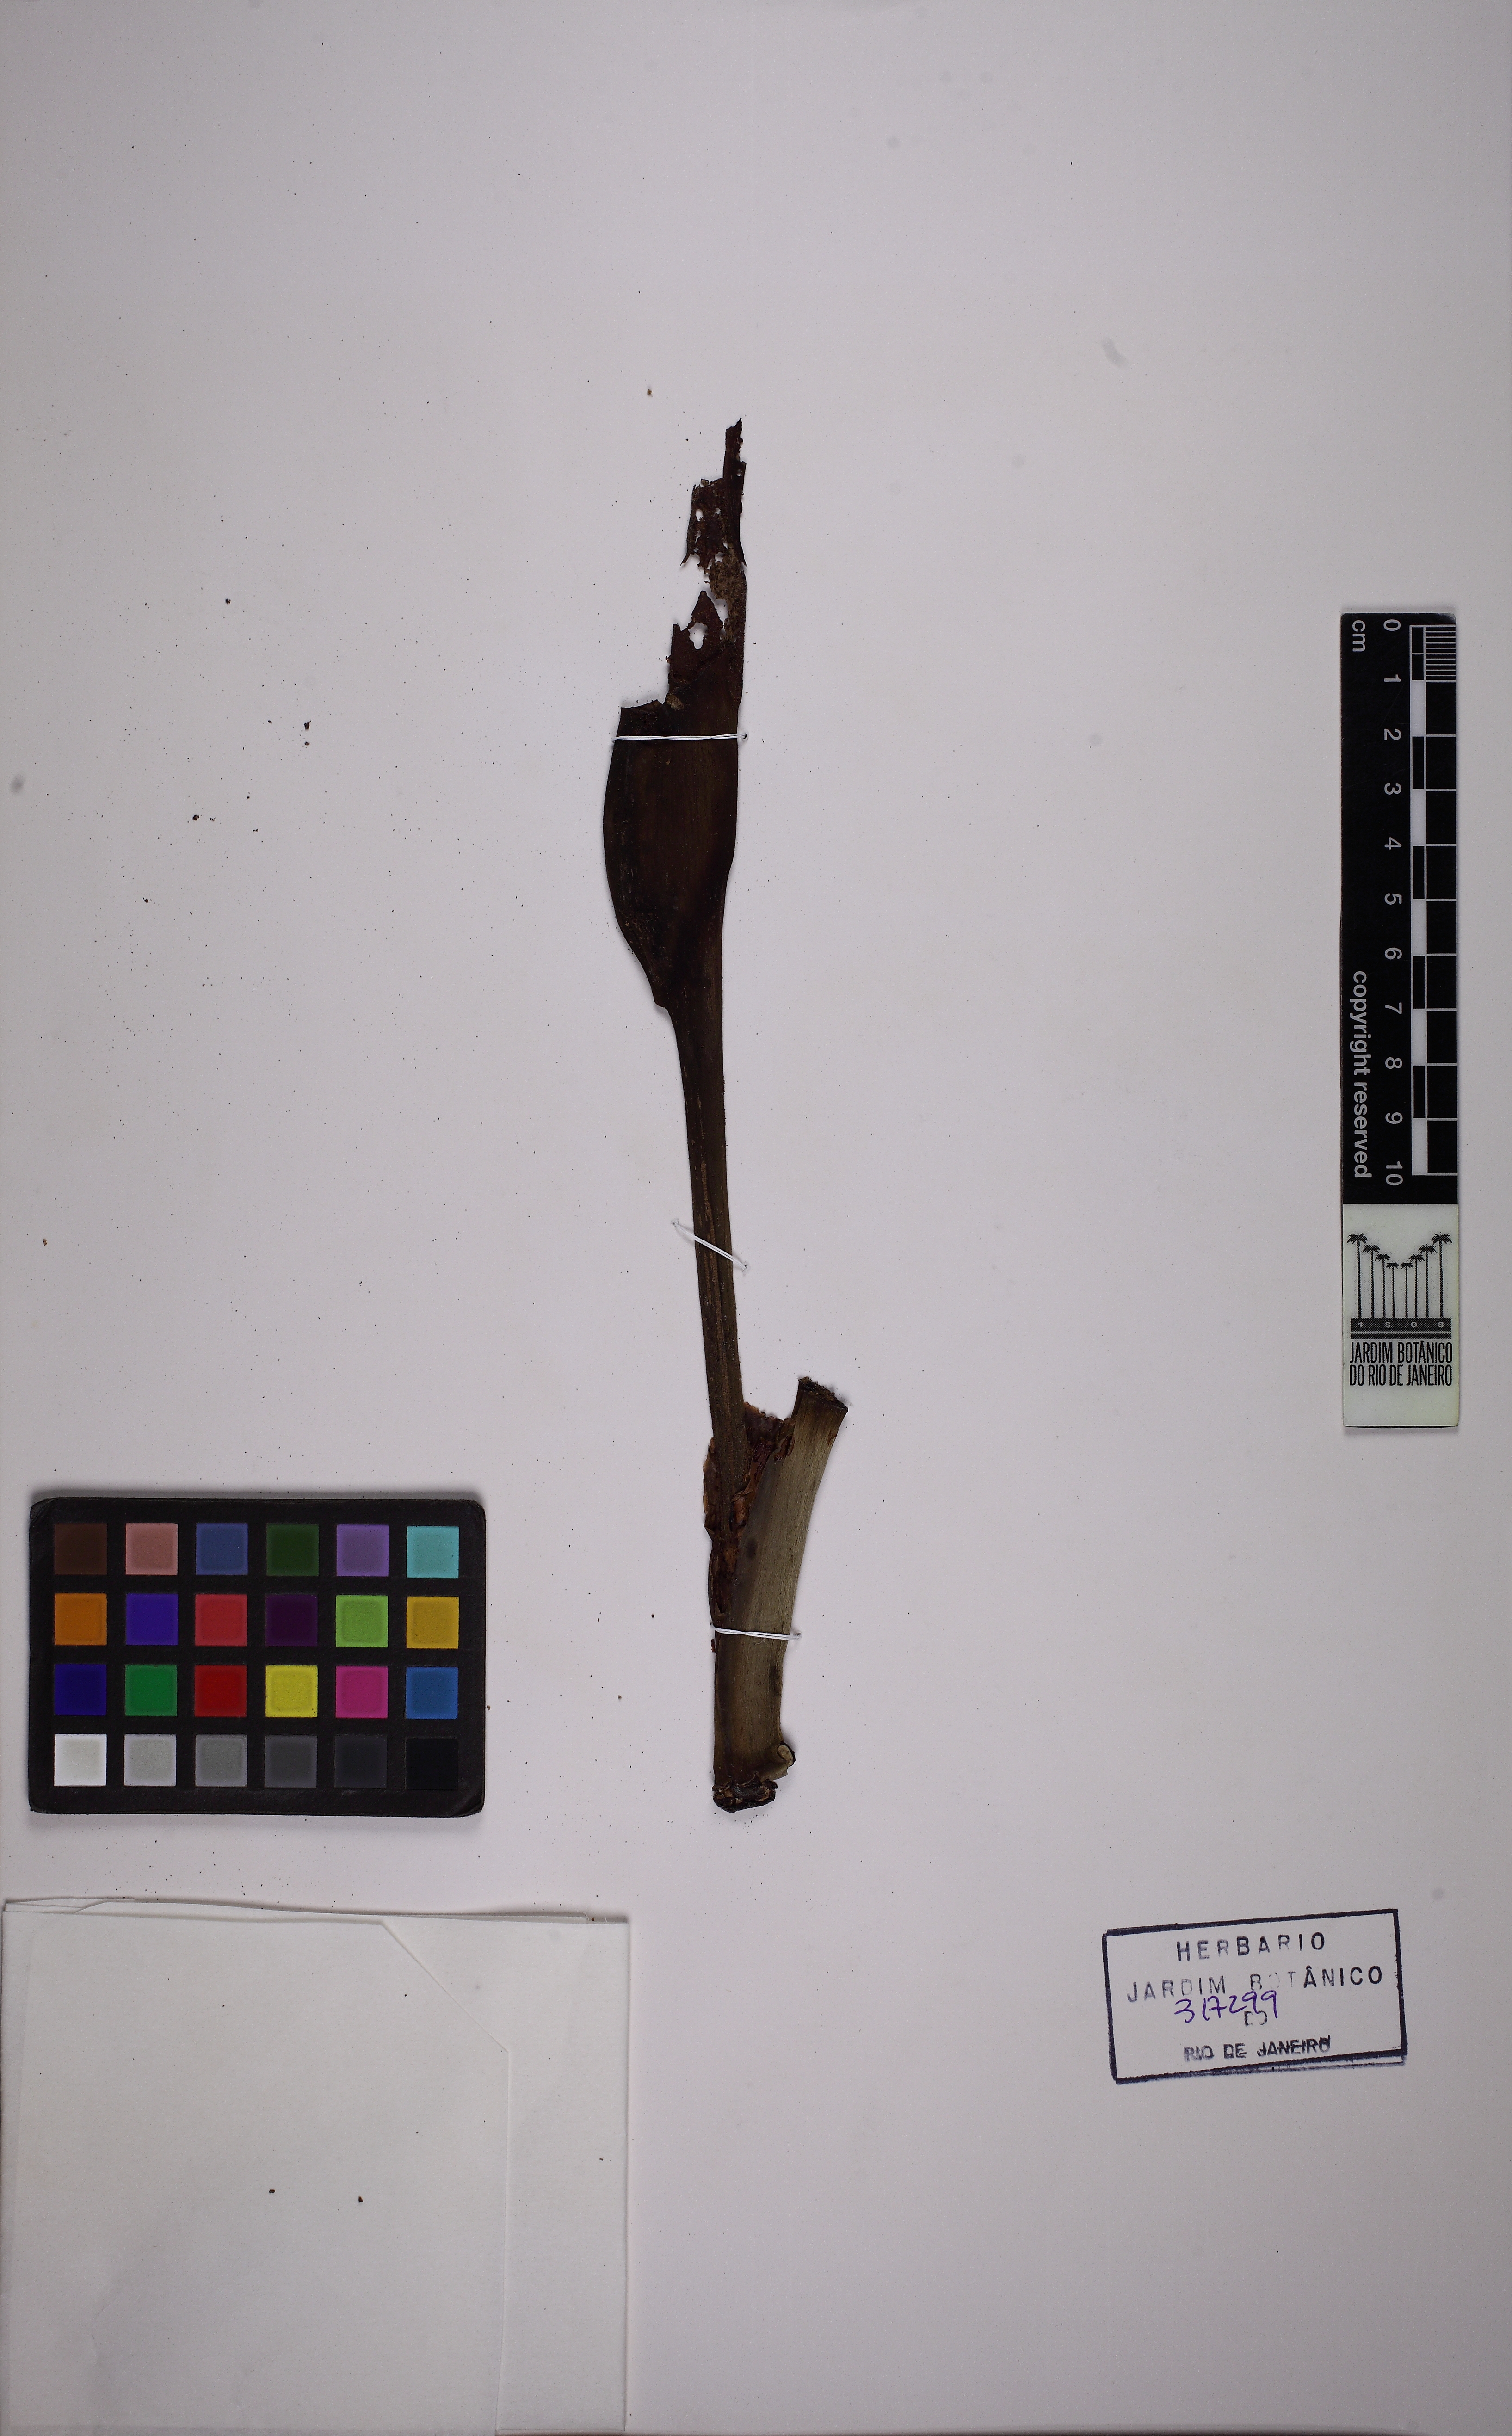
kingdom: Plantae
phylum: Tracheophyta
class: Liliopsida
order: Alismatales
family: Araceae
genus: Philodendron
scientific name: Philodendron appendiculatum
